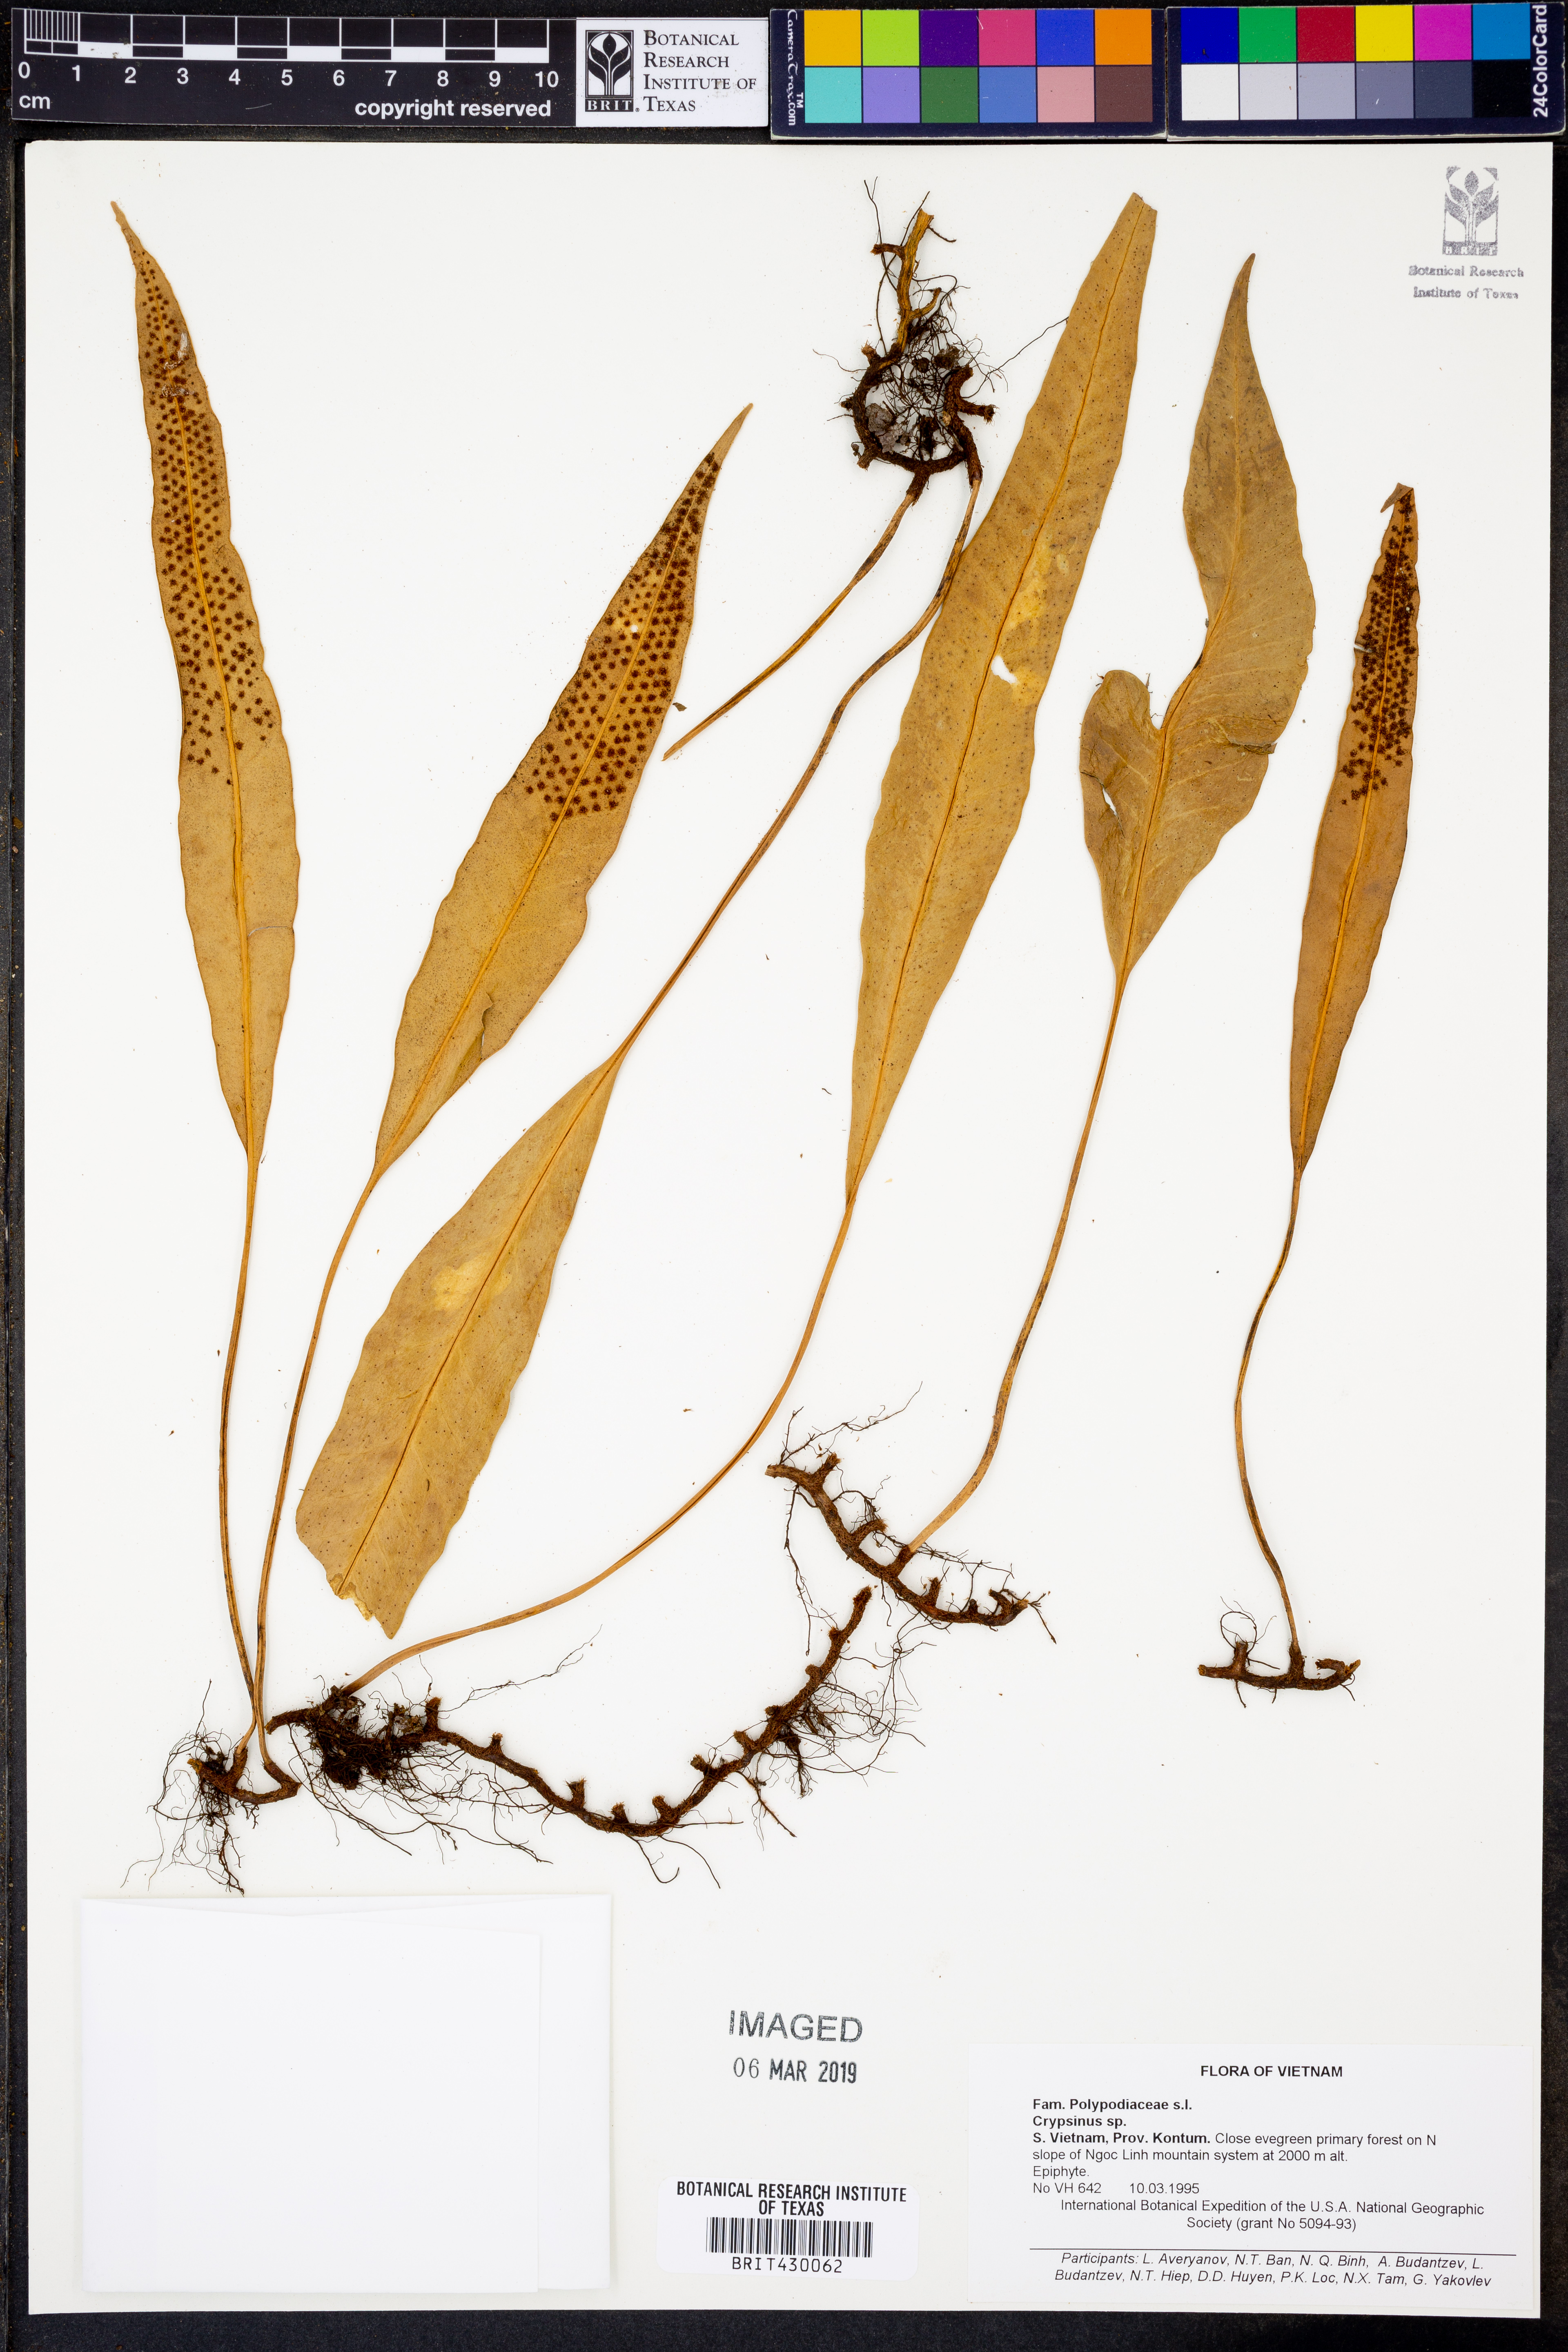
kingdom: Animalia
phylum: Arthropoda
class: Insecta
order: Hemiptera
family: Pentatomidae
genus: Crypsinus
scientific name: Crypsinus
